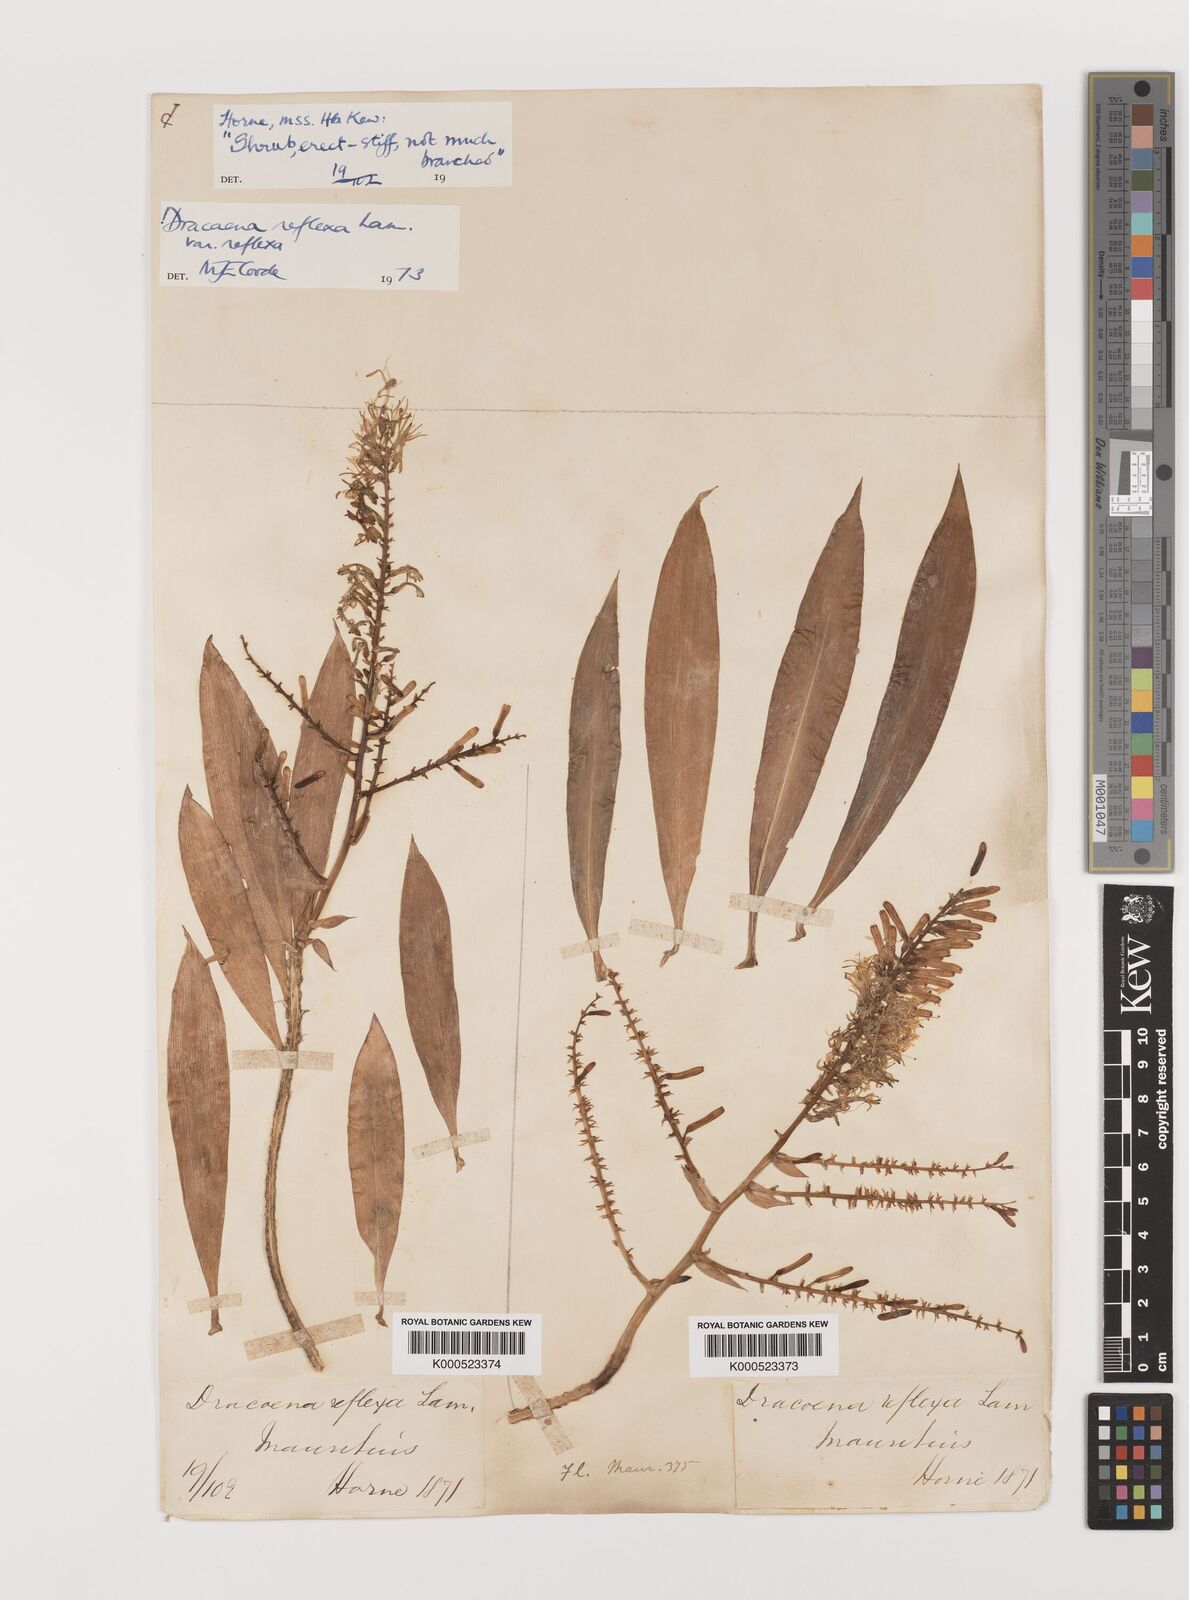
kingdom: Plantae
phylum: Tracheophyta
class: Liliopsida
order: Asparagales
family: Asparagaceae
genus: Dracaena
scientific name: Dracaena reflexa
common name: Song-of-india
